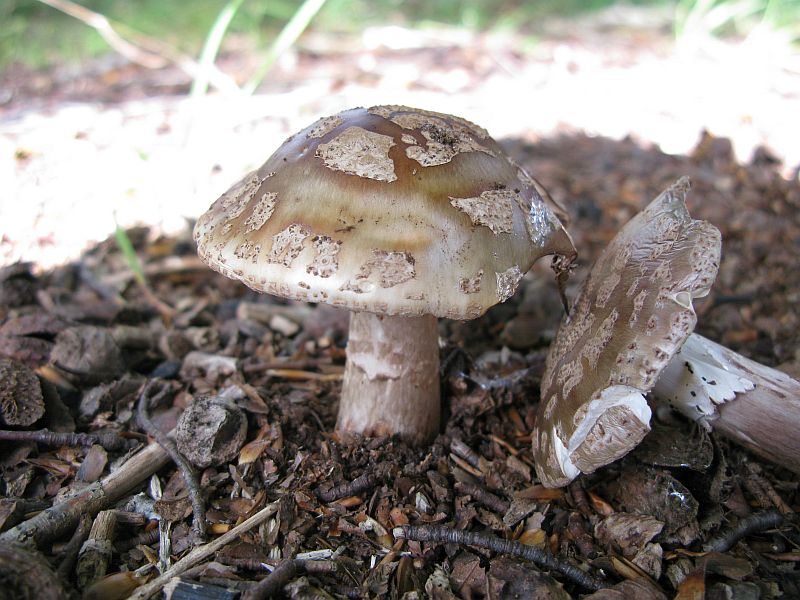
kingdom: Fungi
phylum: Basidiomycota
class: Agaricomycetes
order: Agaricales
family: Amanitaceae
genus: Amanita
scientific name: Amanita rubescens
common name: rødmende fluesvamp
